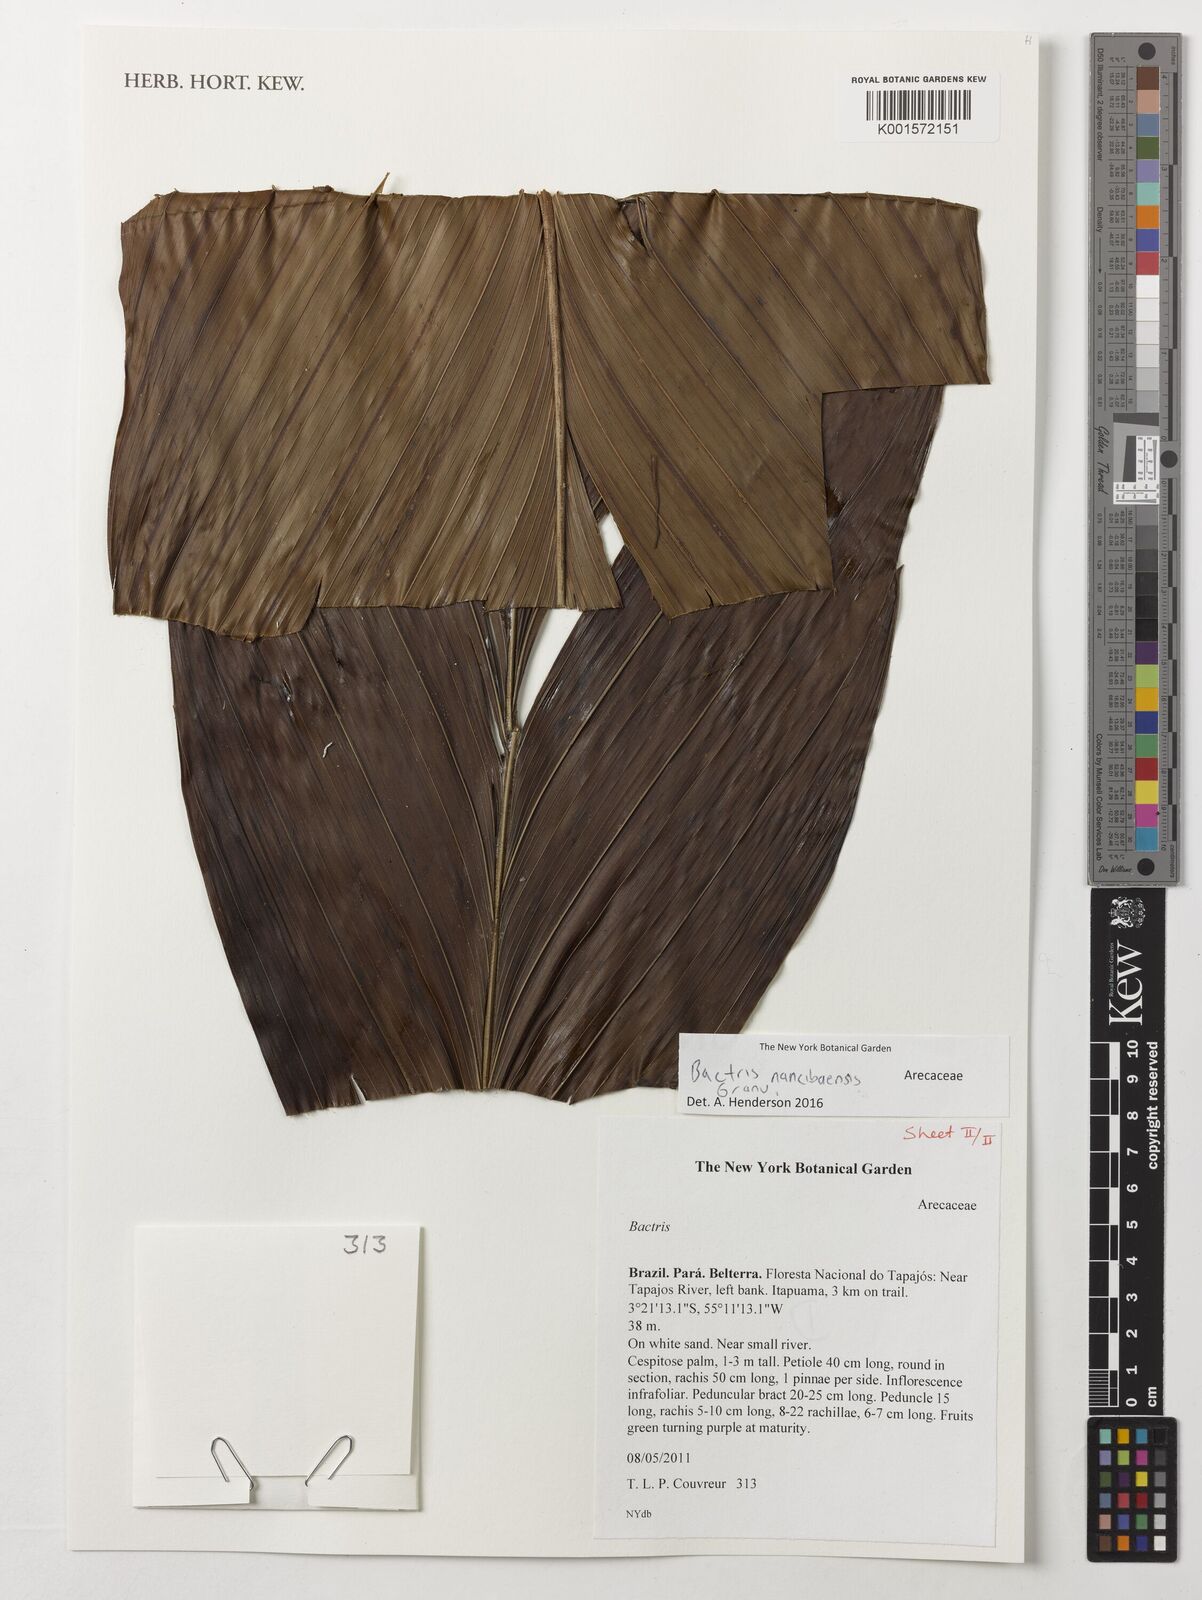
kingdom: Plantae
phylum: Tracheophyta
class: Liliopsida
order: Arecales
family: Arecaceae
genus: Bactris
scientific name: Bactris nancibaensis
